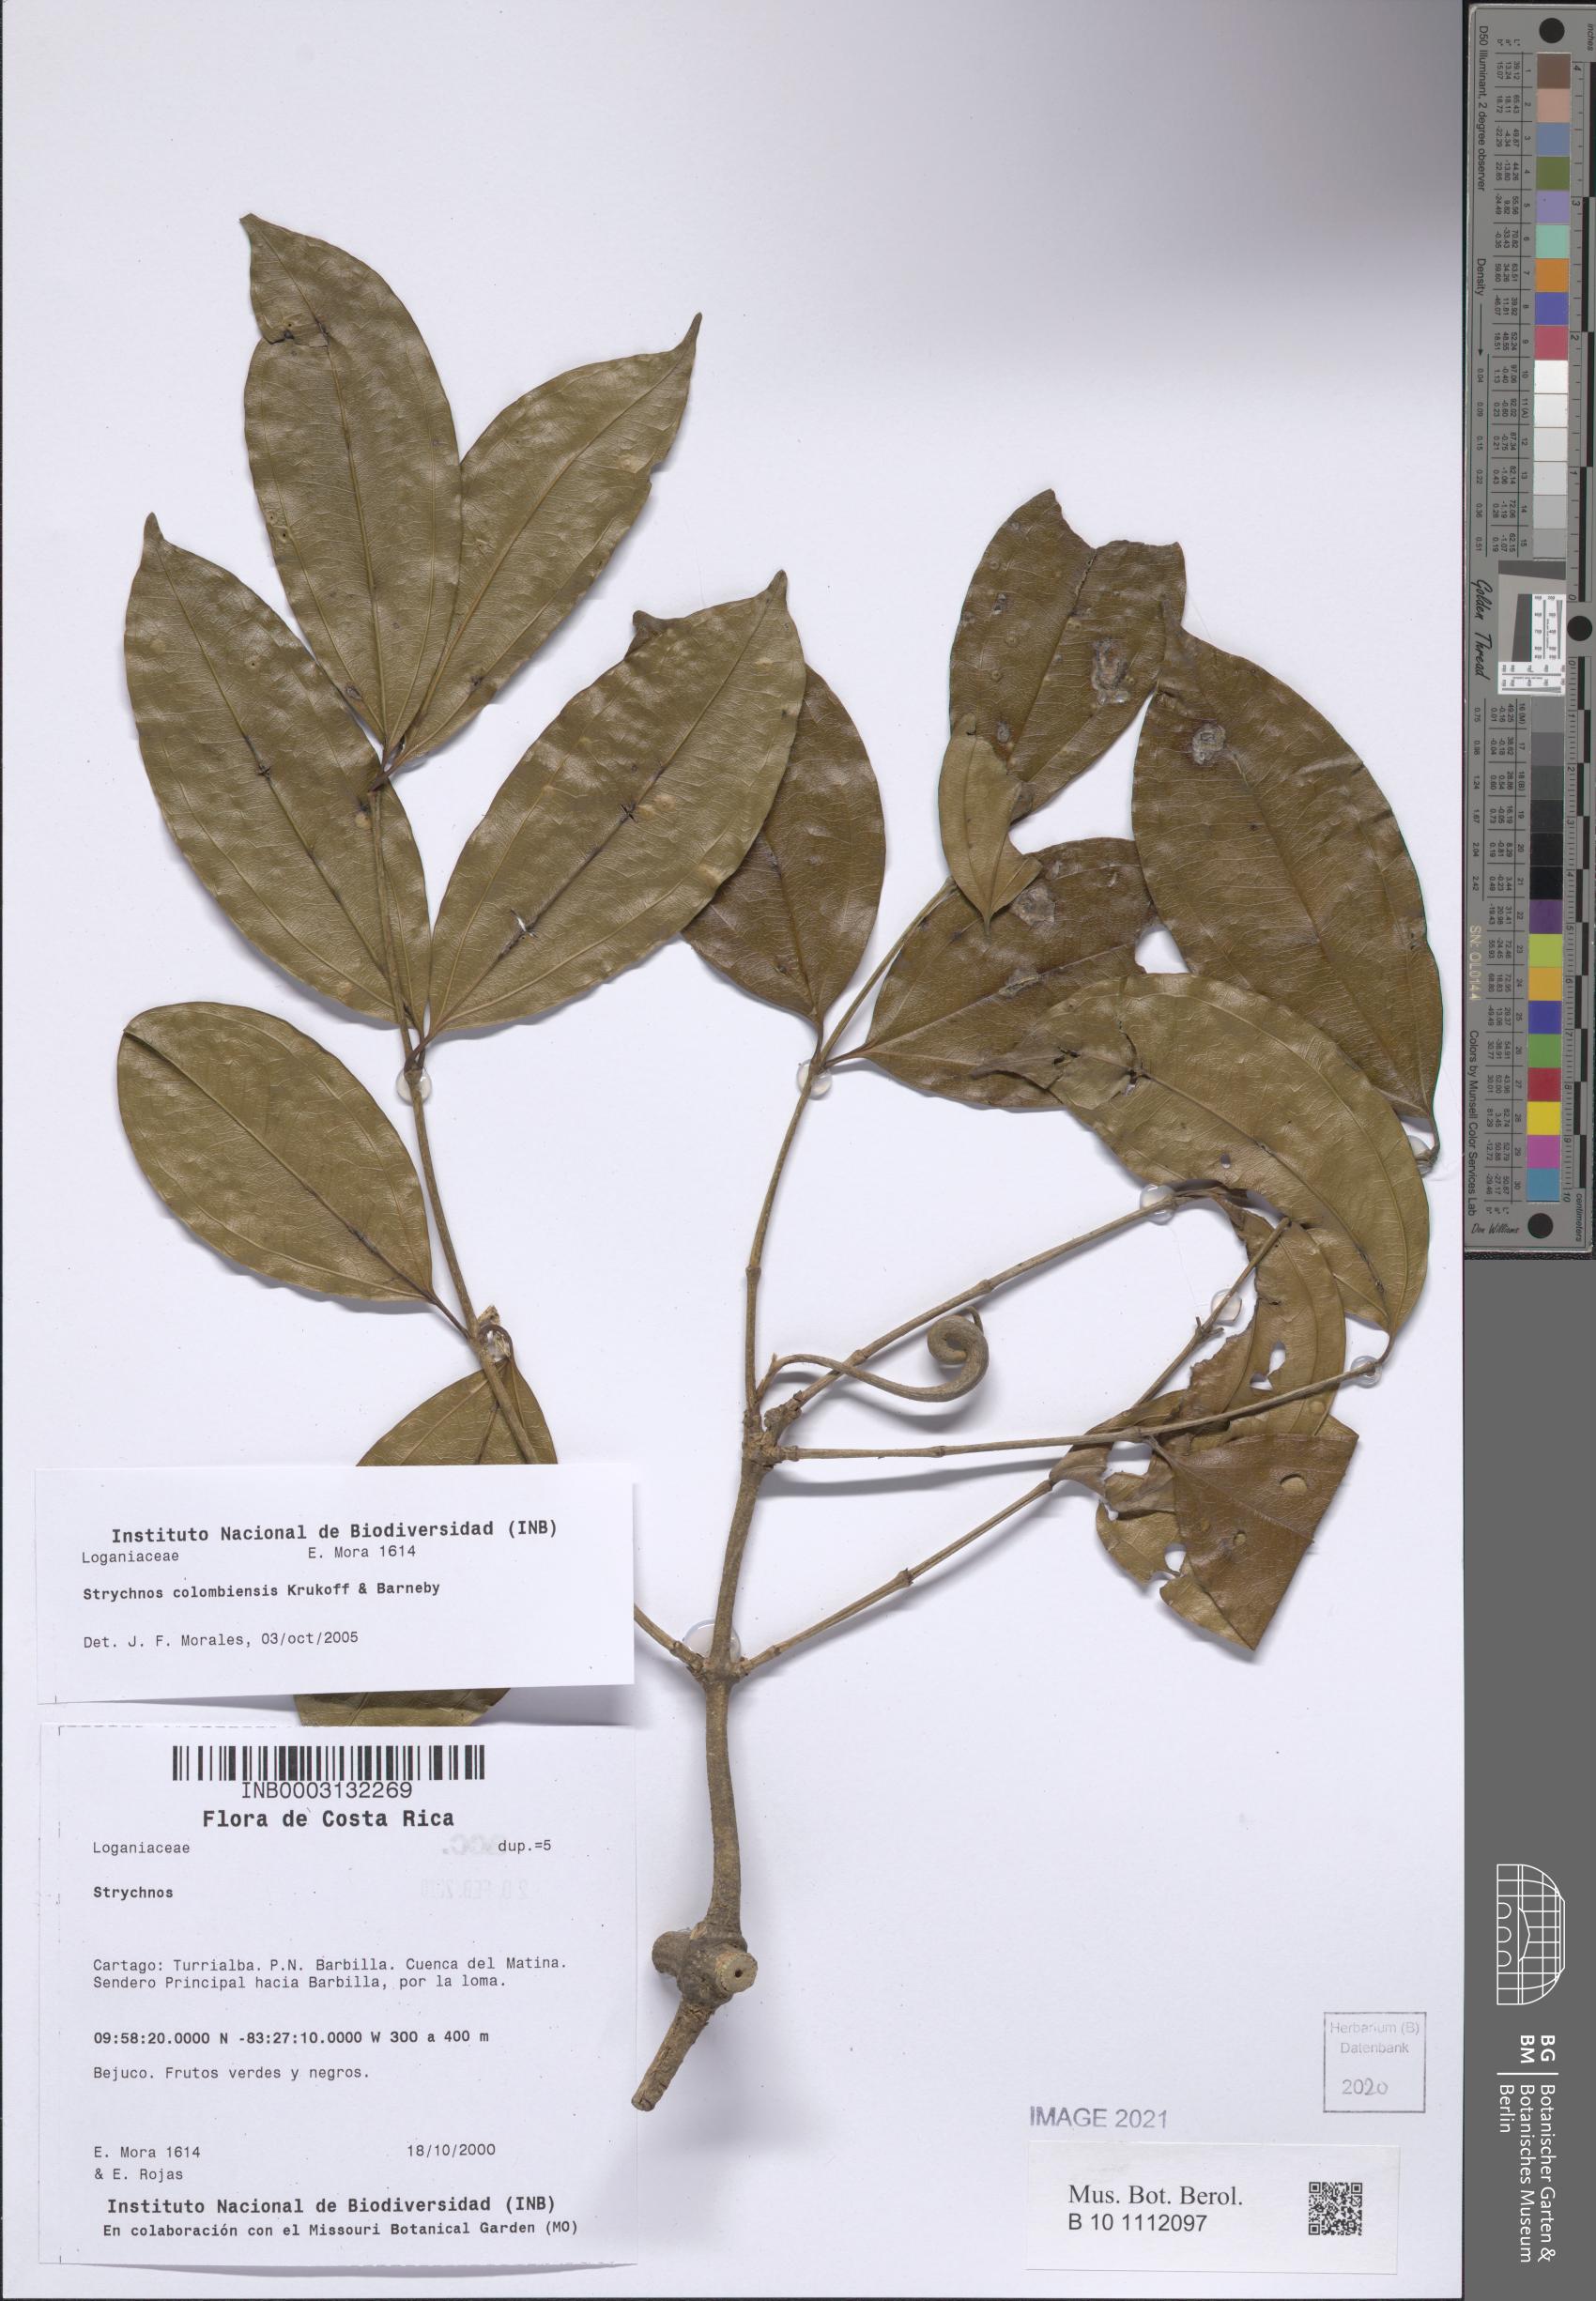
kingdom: Plantae
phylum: Tracheophyta
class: Magnoliopsida
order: Gentianales
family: Loganiaceae
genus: Strychnos
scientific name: Strychnos colombiensis
